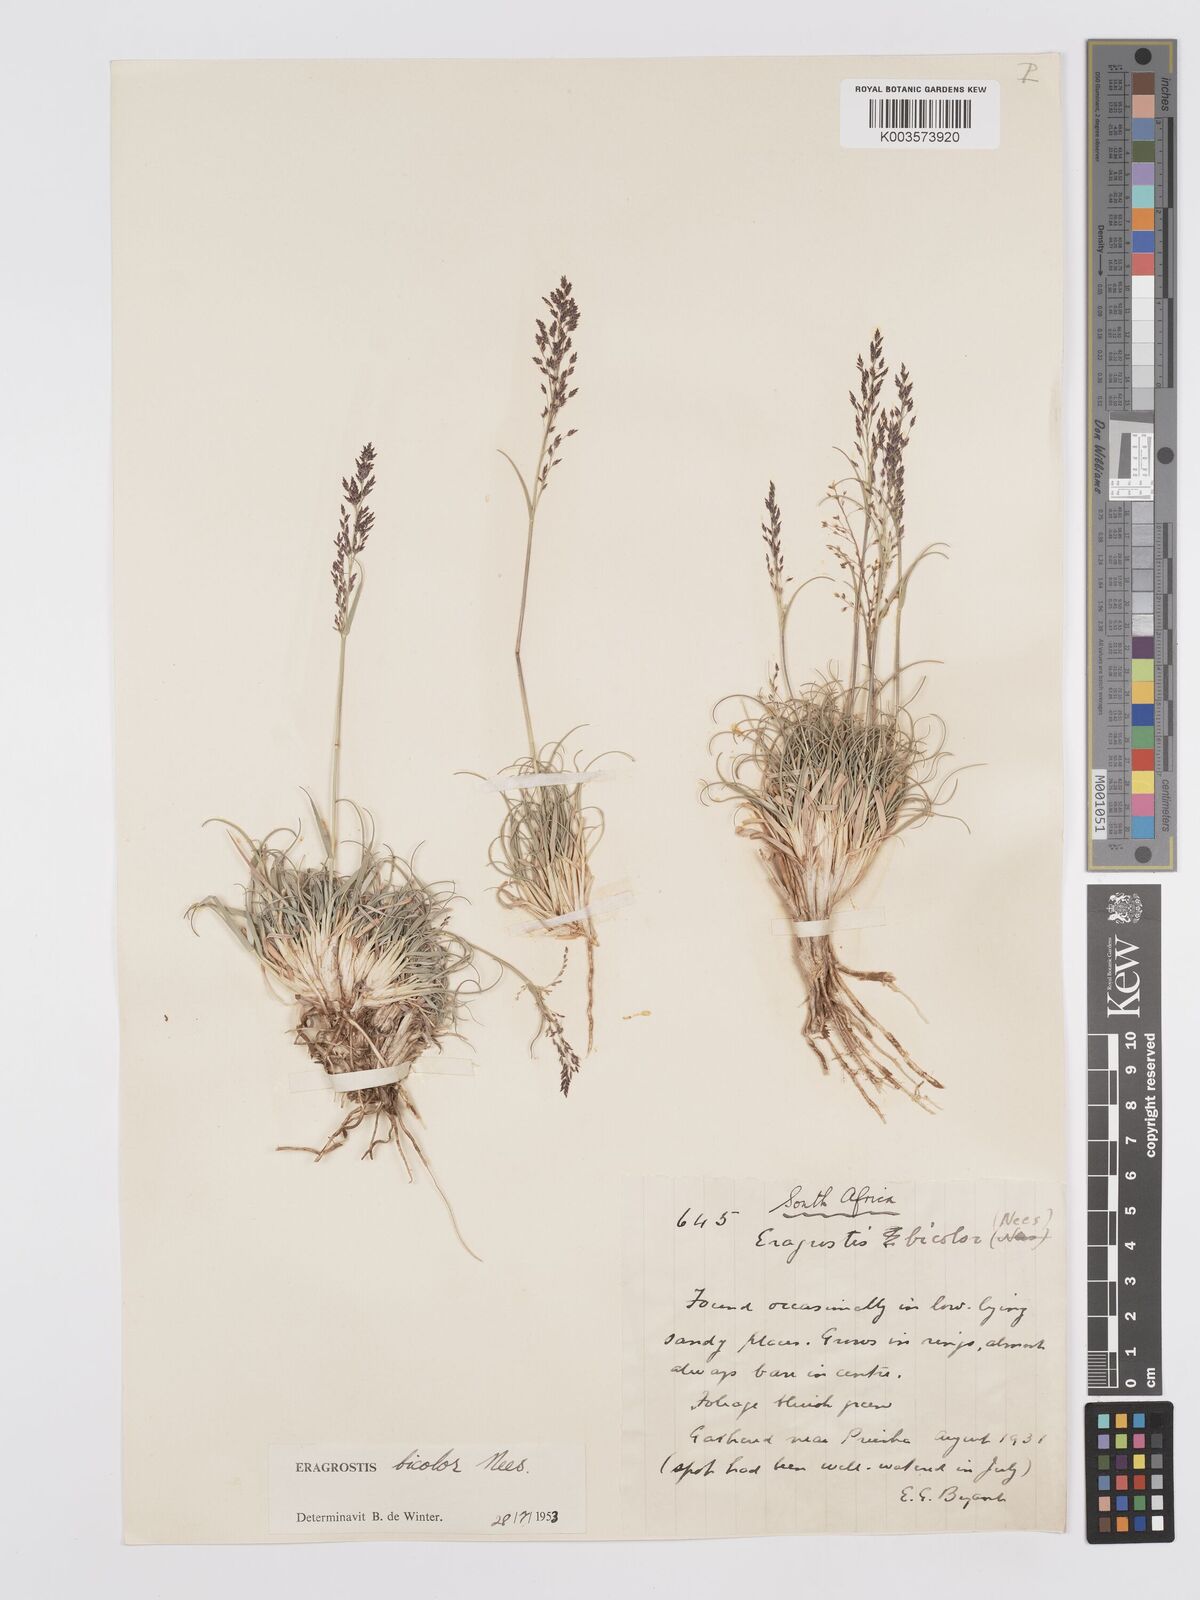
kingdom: Plantae
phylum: Tracheophyta
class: Liliopsida
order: Poales
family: Poaceae
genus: Eragrostis
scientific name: Eragrostis
